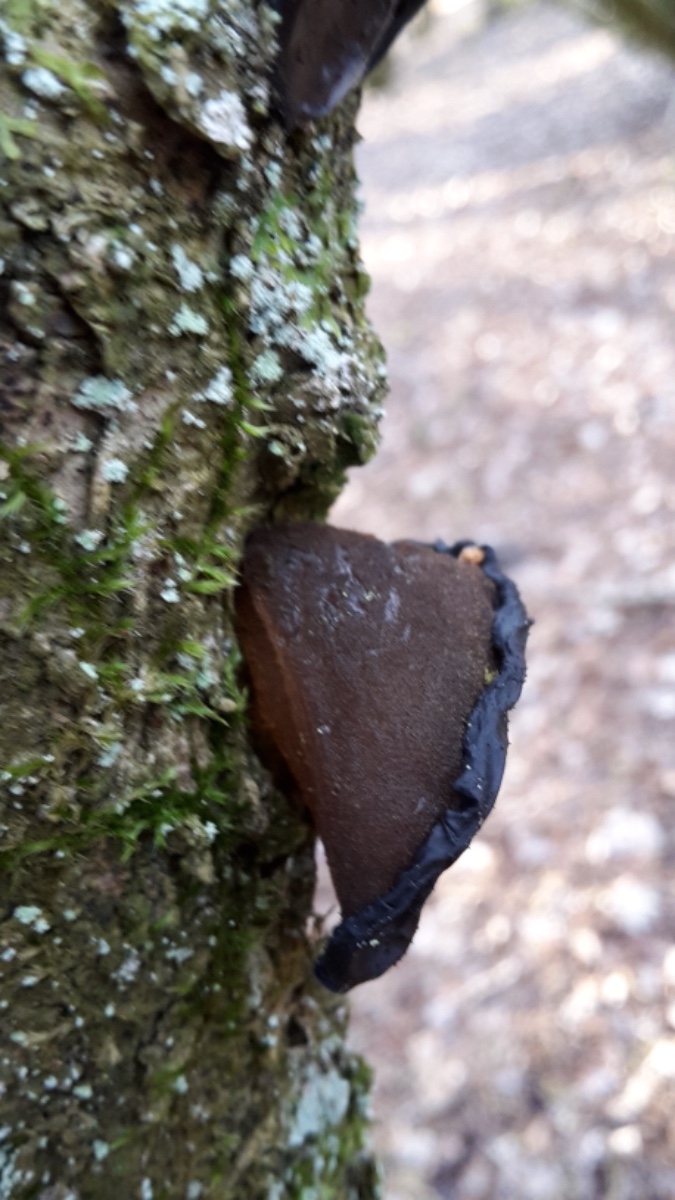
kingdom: Fungi
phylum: Basidiomycota
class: Agaricomycetes
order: Auriculariales
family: Auriculariaceae
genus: Exidia
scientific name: Exidia glandulosa
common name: ege-bævretop
